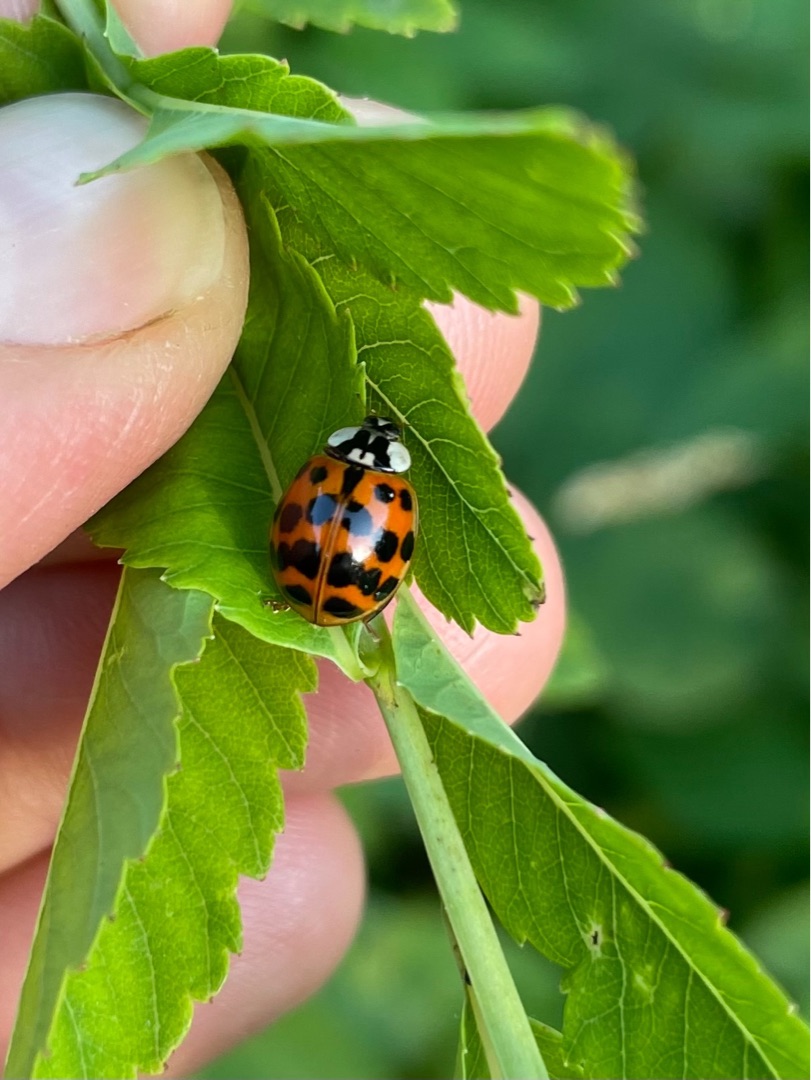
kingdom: Animalia
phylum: Arthropoda
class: Insecta
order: Coleoptera
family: Coccinellidae
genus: Harmonia
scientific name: Harmonia axyridis
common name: Harlekinmariehøne
